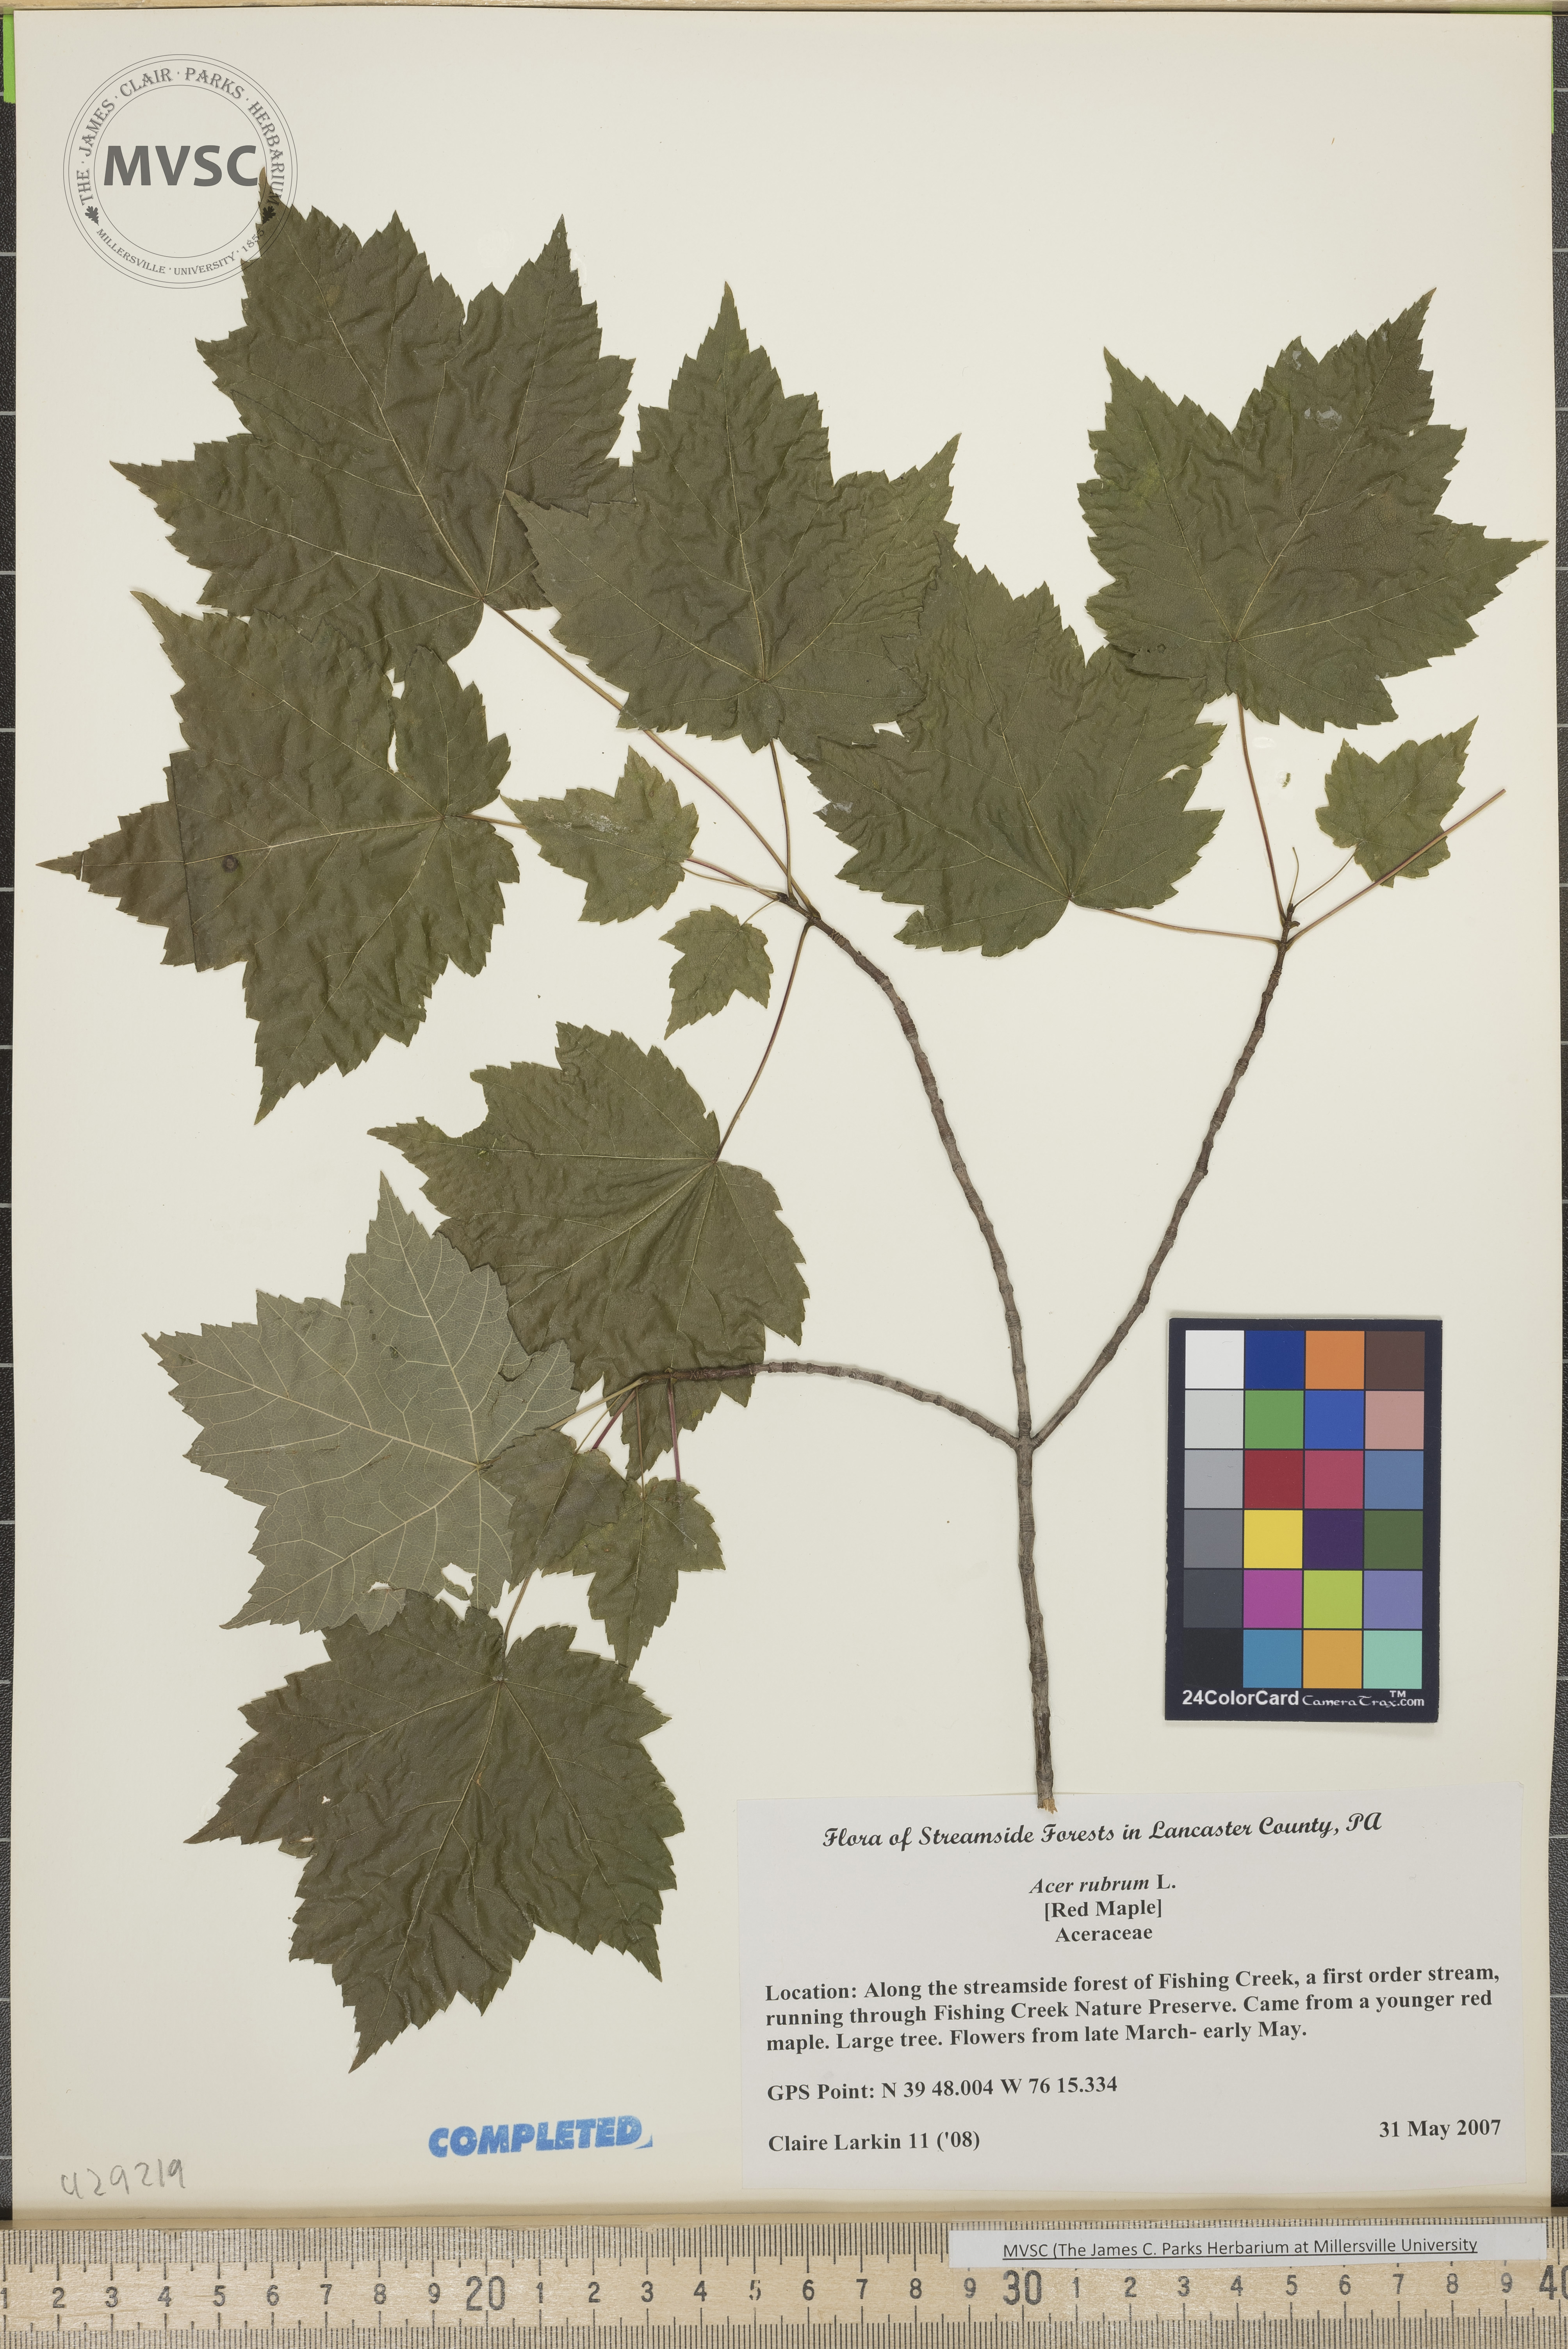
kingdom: Plantae
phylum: Tracheophyta
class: Magnoliopsida
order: Sapindales
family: Sapindaceae
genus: Acer
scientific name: Acer rubrum
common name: red maple
